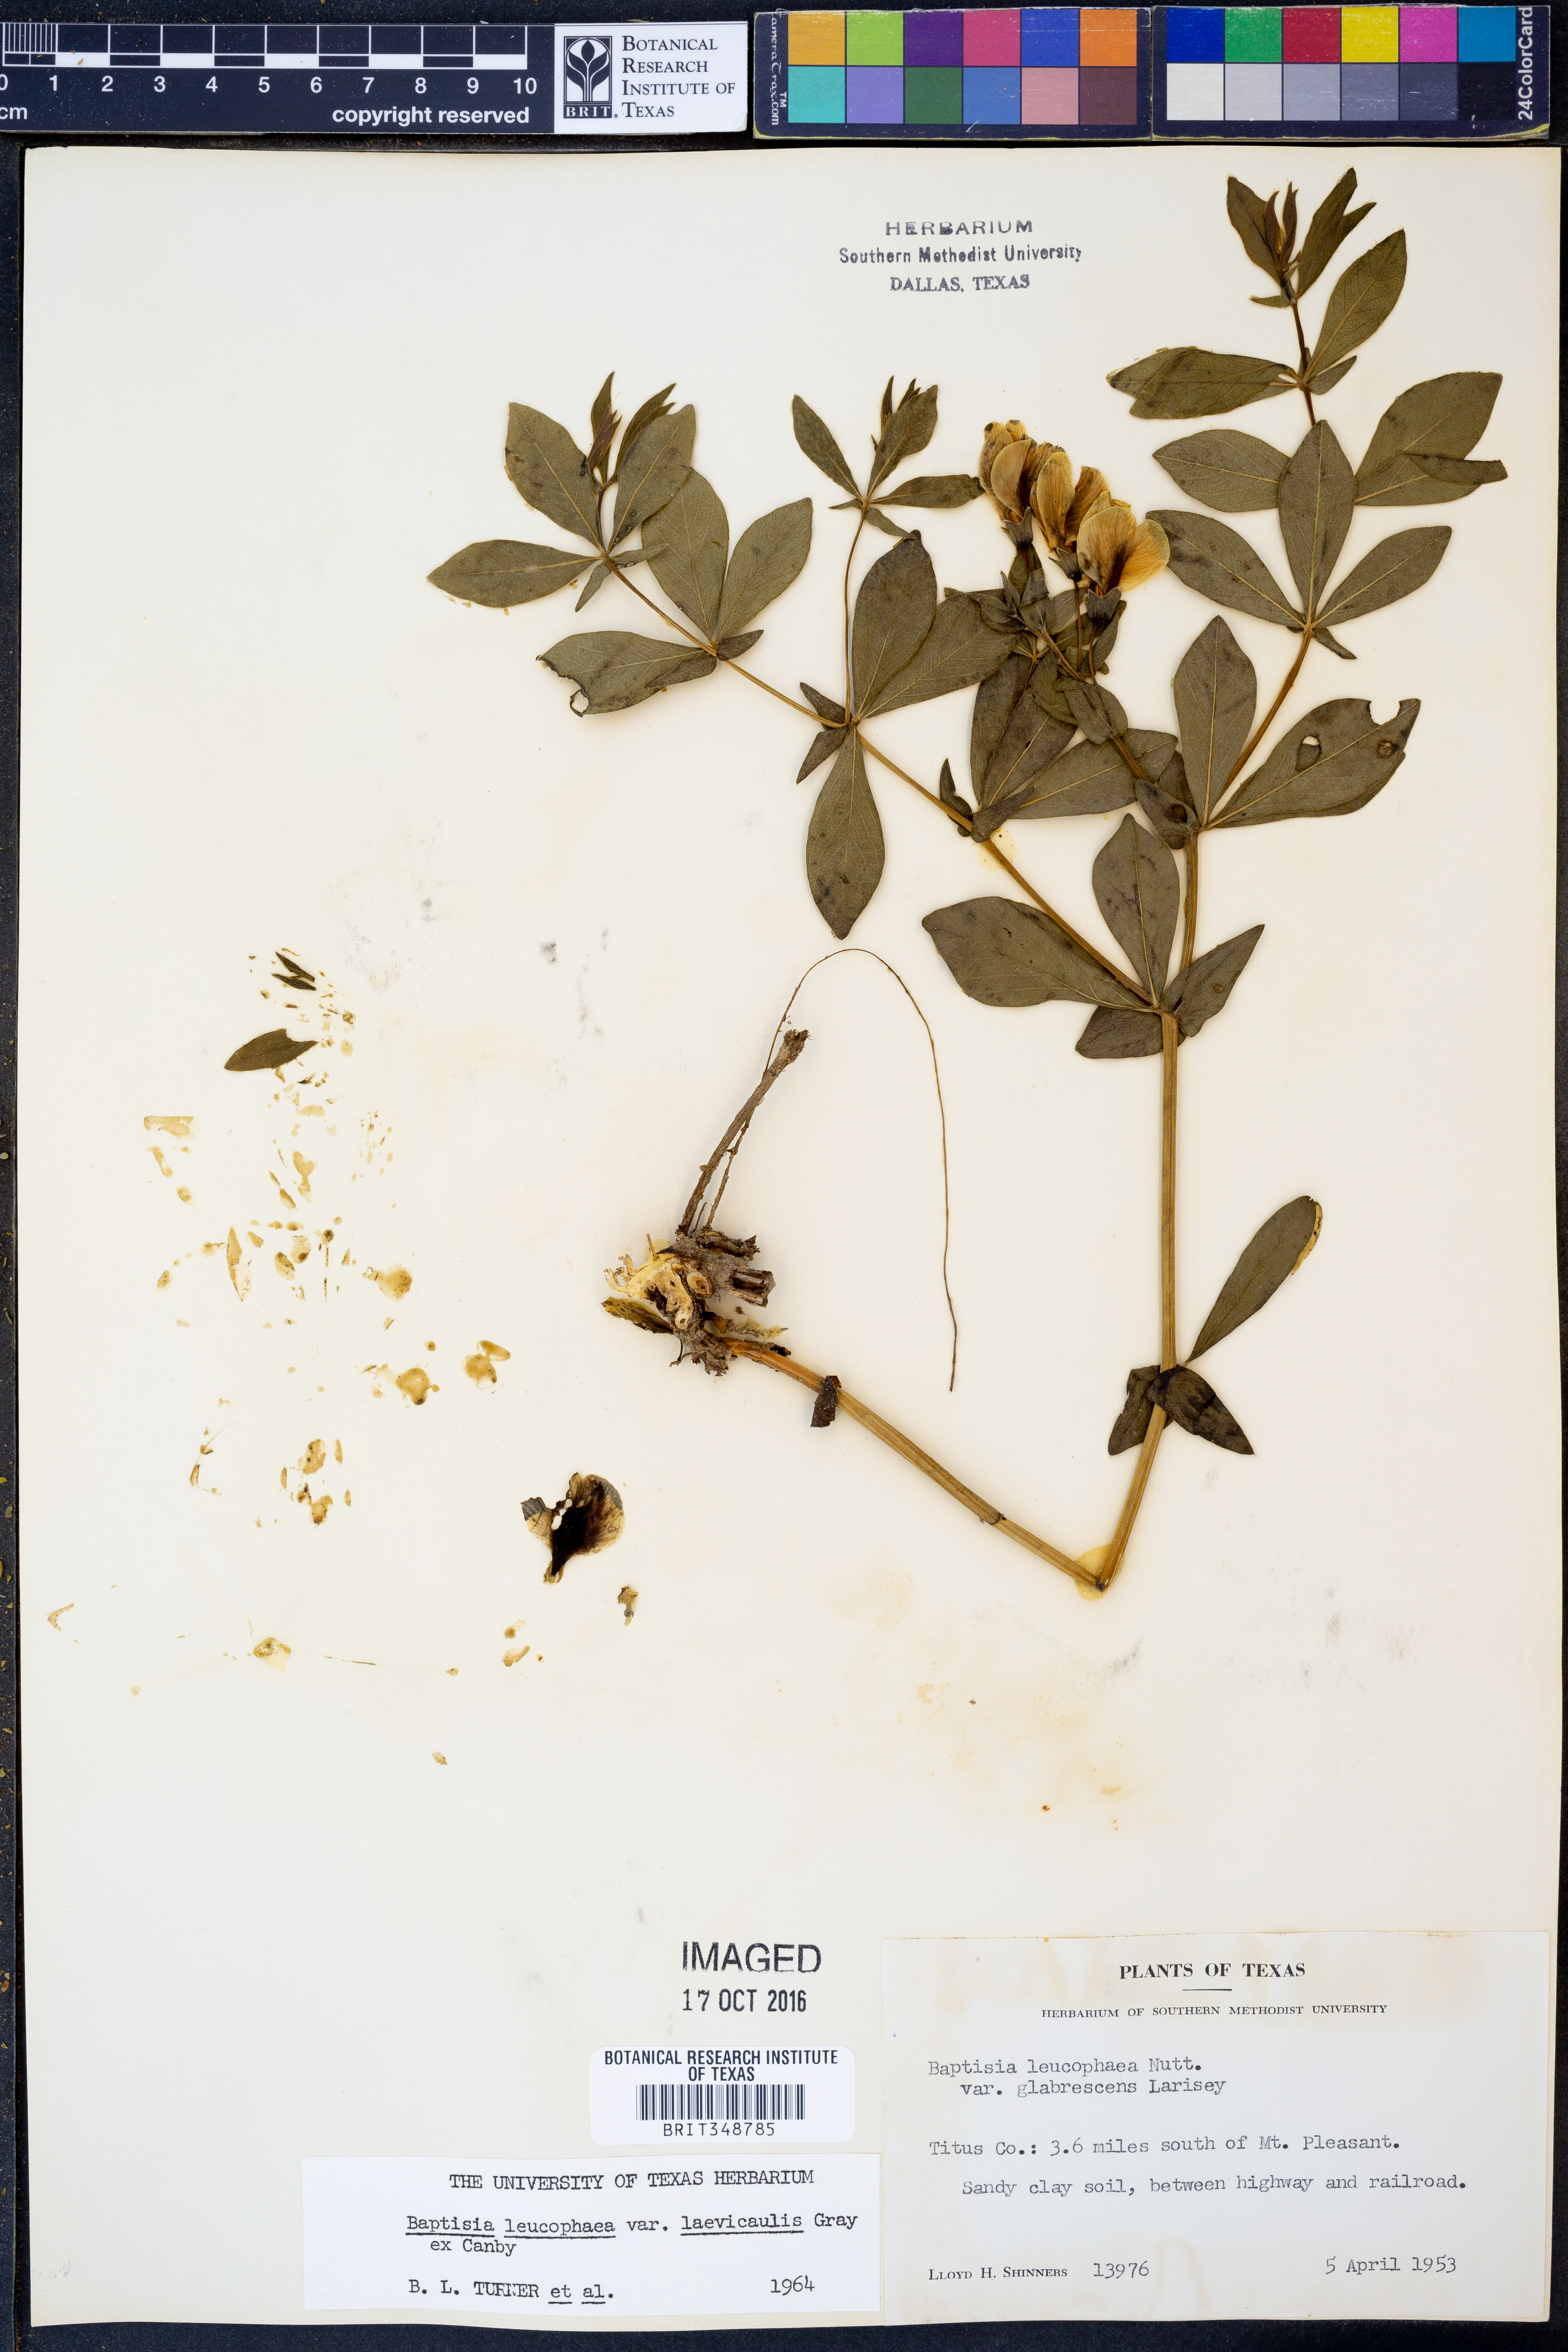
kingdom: Plantae
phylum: Tracheophyta
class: Magnoliopsida
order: Fabales
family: Fabaceae
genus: Baptisia
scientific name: Baptisia bracteata
